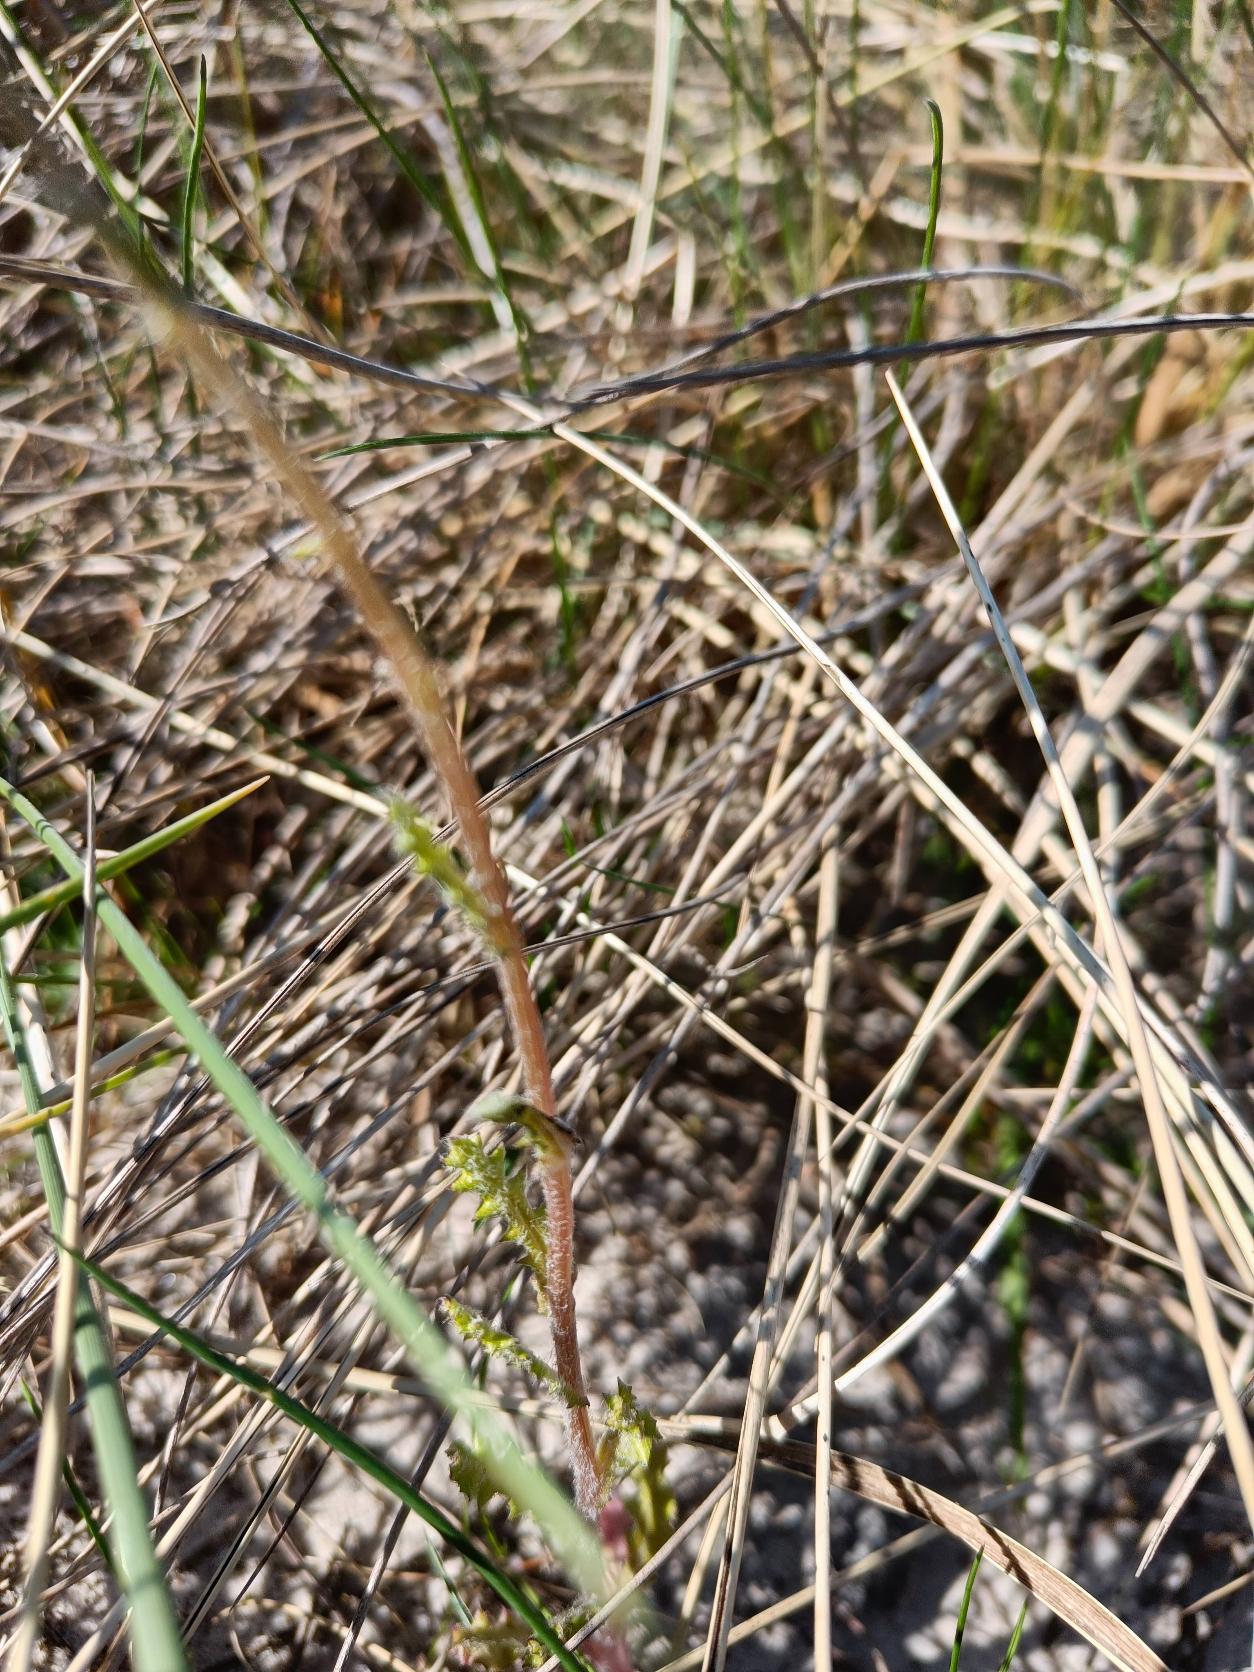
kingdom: Plantae
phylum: Tracheophyta
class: Magnoliopsida
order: Asterales
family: Asteraceae
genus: Senecio
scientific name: Senecio leucanthemifolius
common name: Vår-brandbæger
